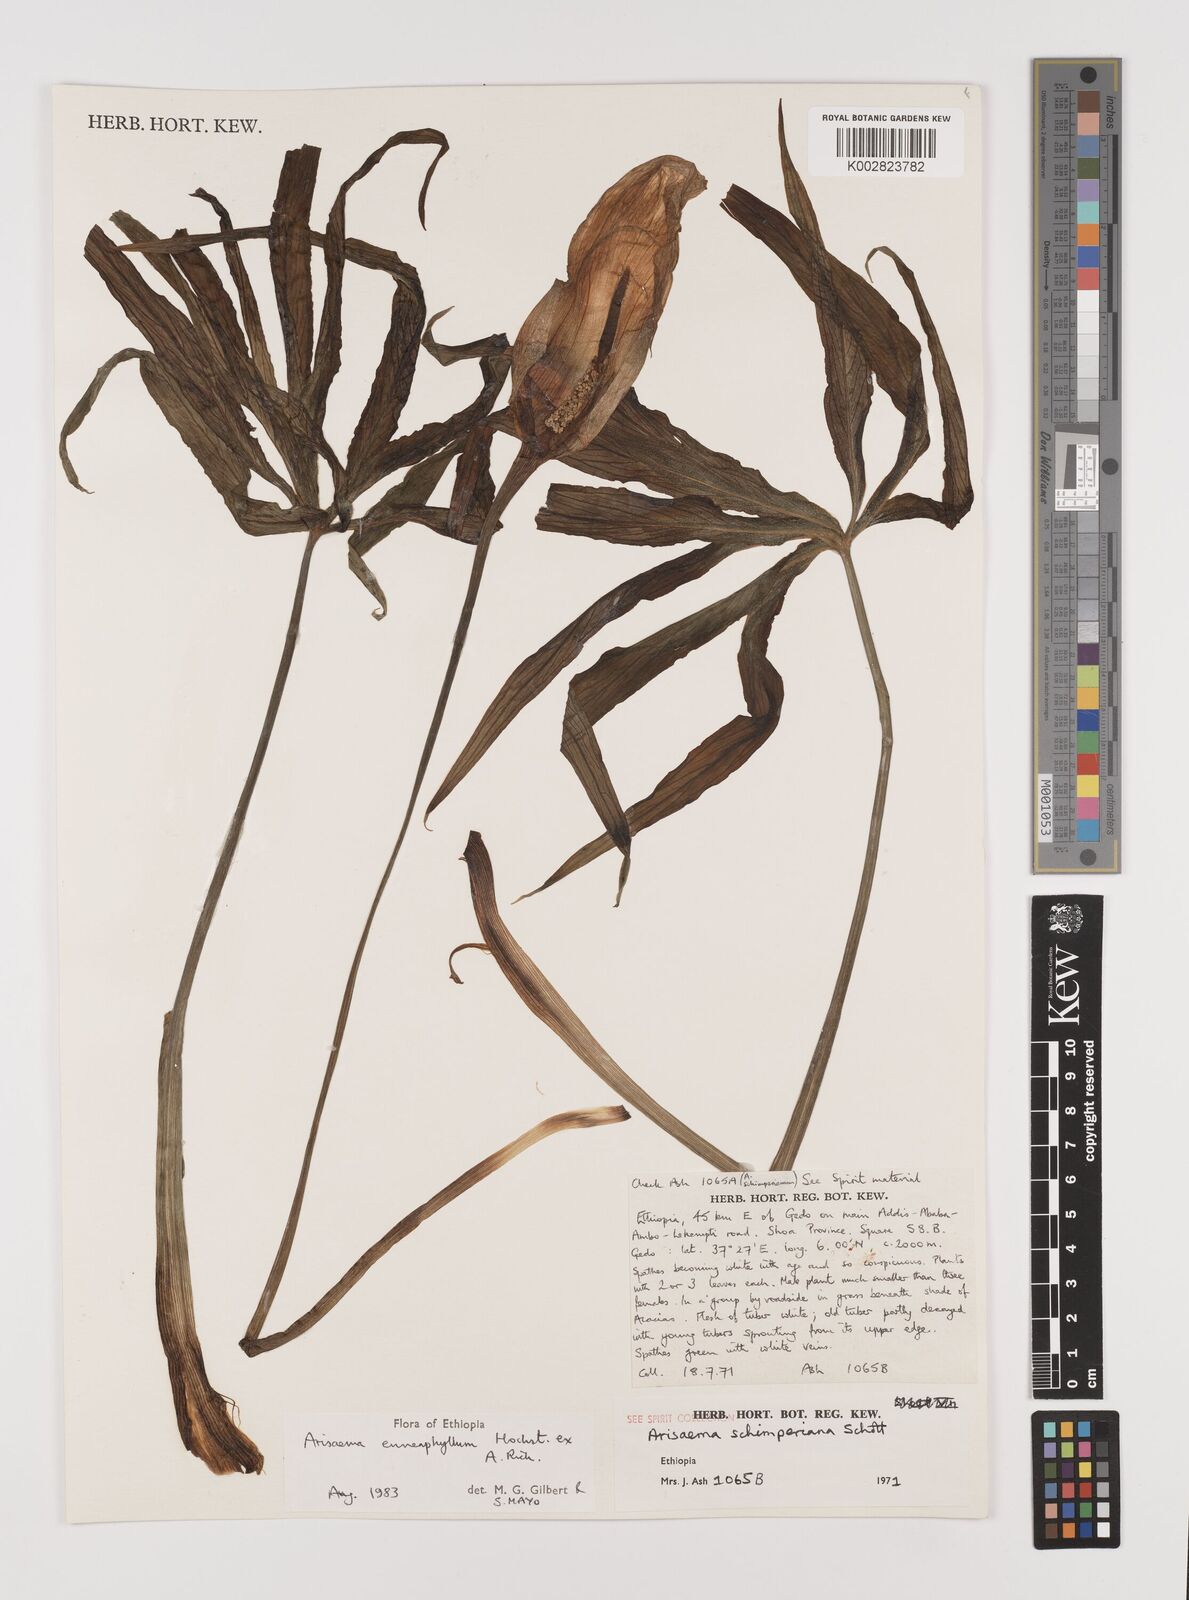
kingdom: Plantae
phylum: Tracheophyta
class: Liliopsida
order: Alismatales
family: Araceae
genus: Arisaema
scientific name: Arisaema enneaphyllum
